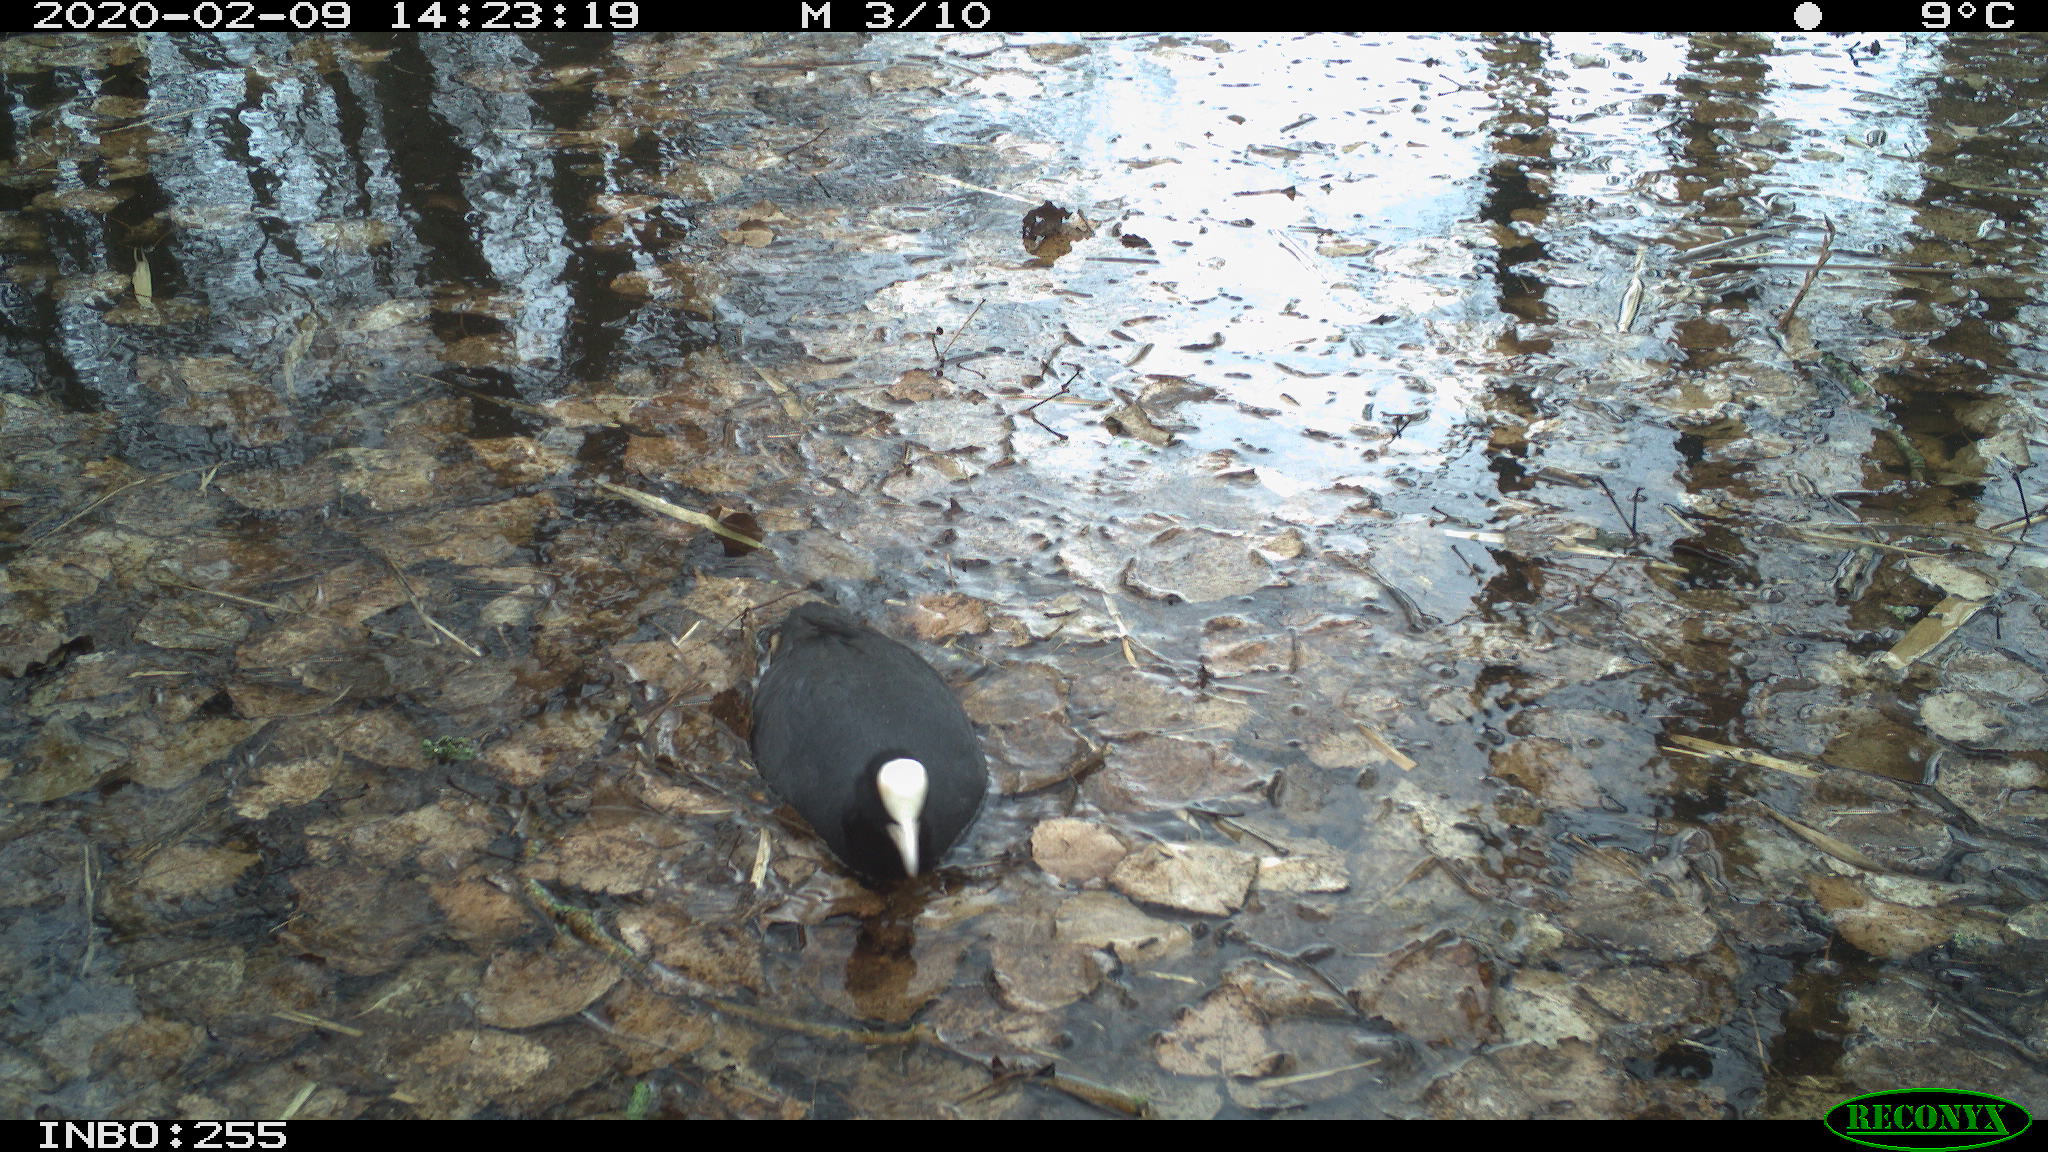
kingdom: Animalia
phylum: Chordata
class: Aves
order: Gruiformes
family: Rallidae
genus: Fulica
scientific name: Fulica atra
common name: Eurasian coot
